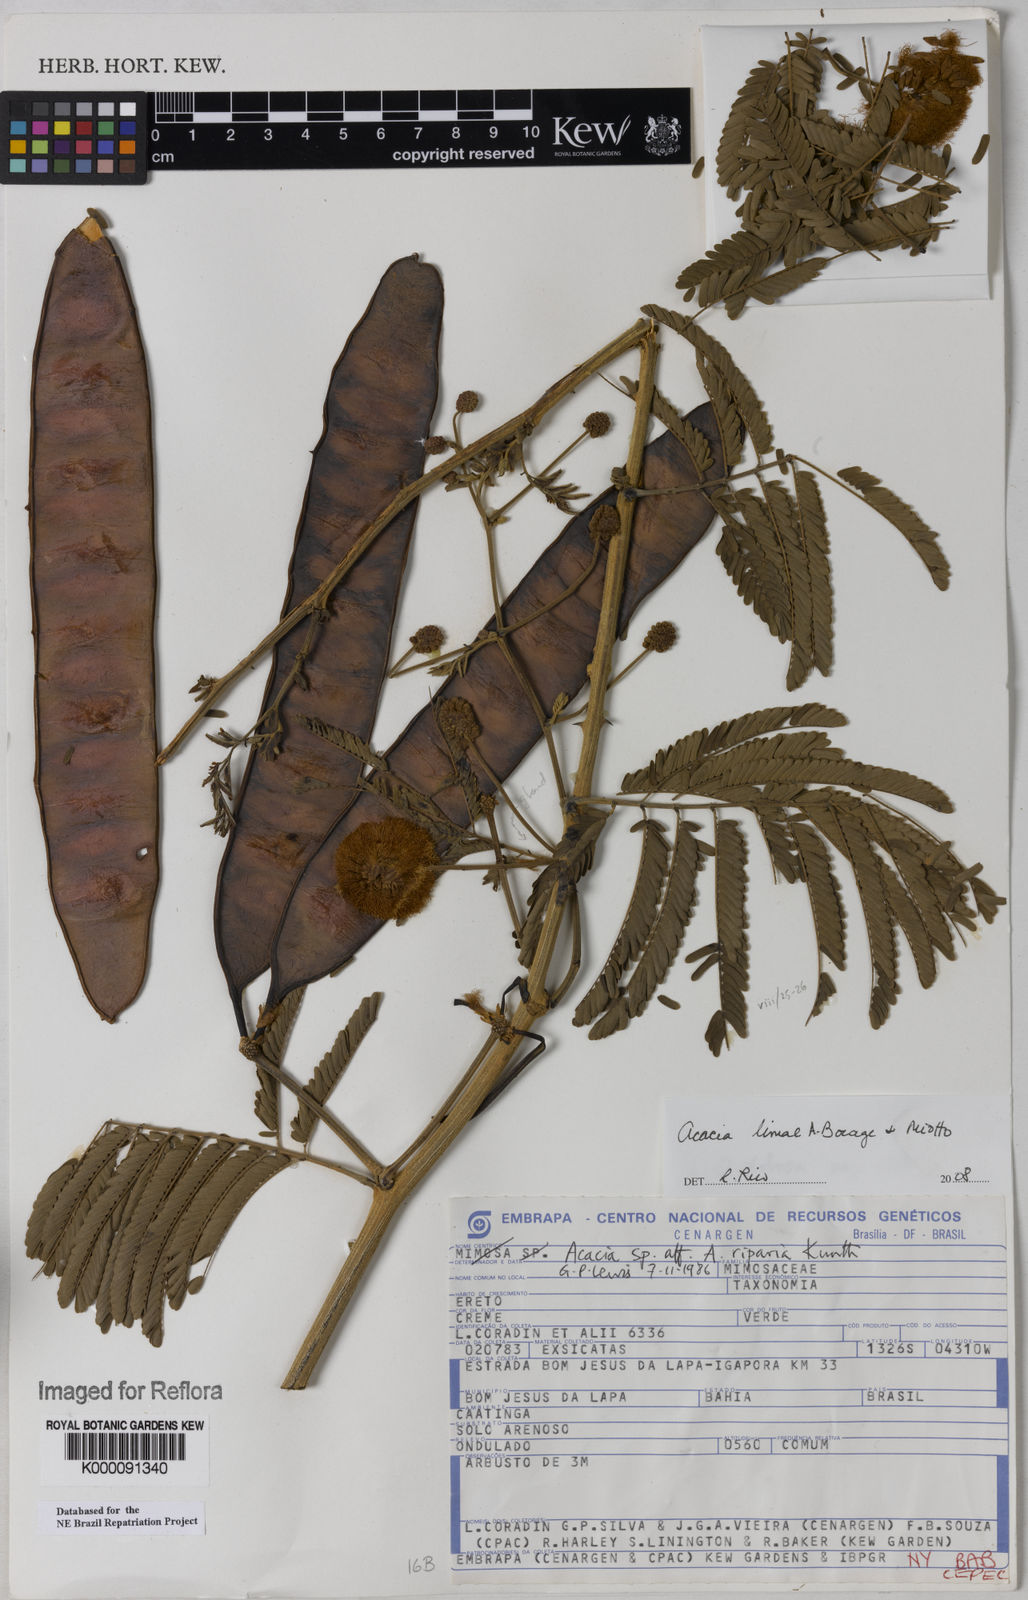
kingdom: Plantae
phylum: Tracheophyta
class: Magnoliopsida
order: Fabales
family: Fabaceae
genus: Senegalia
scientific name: Senegalia lasiophylla
